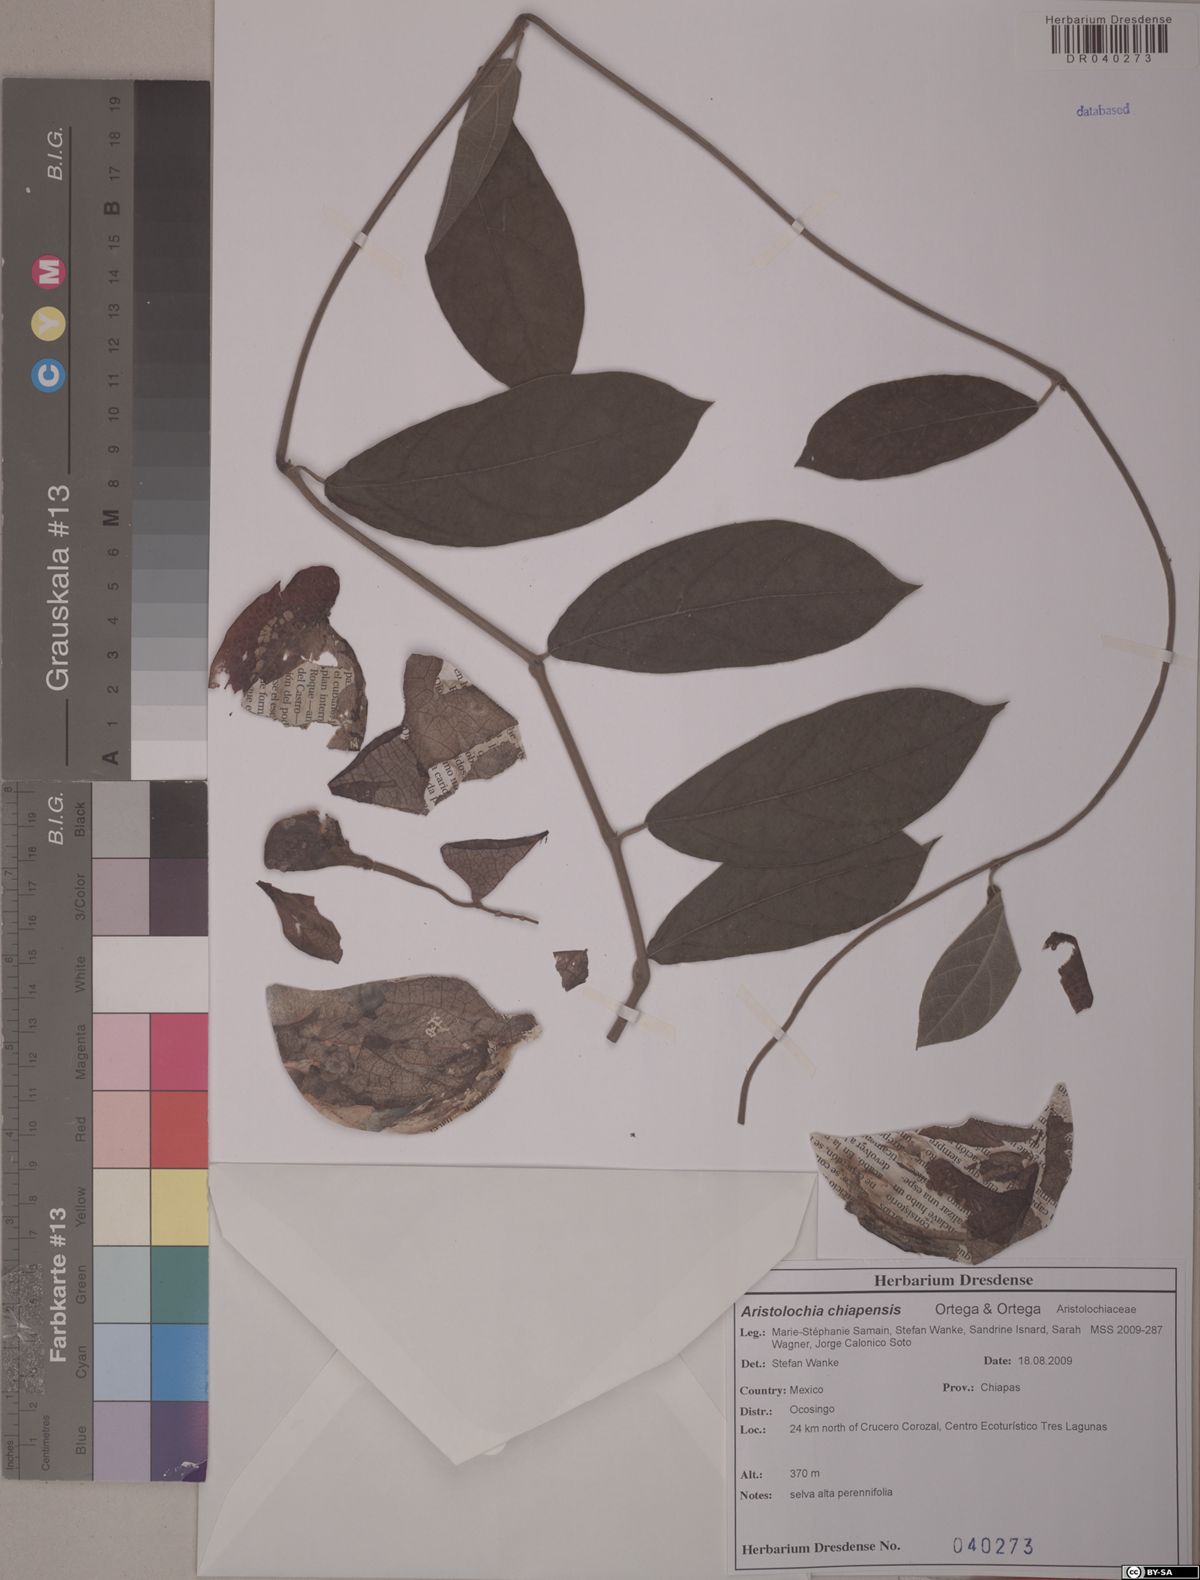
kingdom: Plantae
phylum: Tracheophyta
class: Magnoliopsida
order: Piperales
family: Aristolochiaceae
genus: Isotrema
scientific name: Isotrema paracletum
